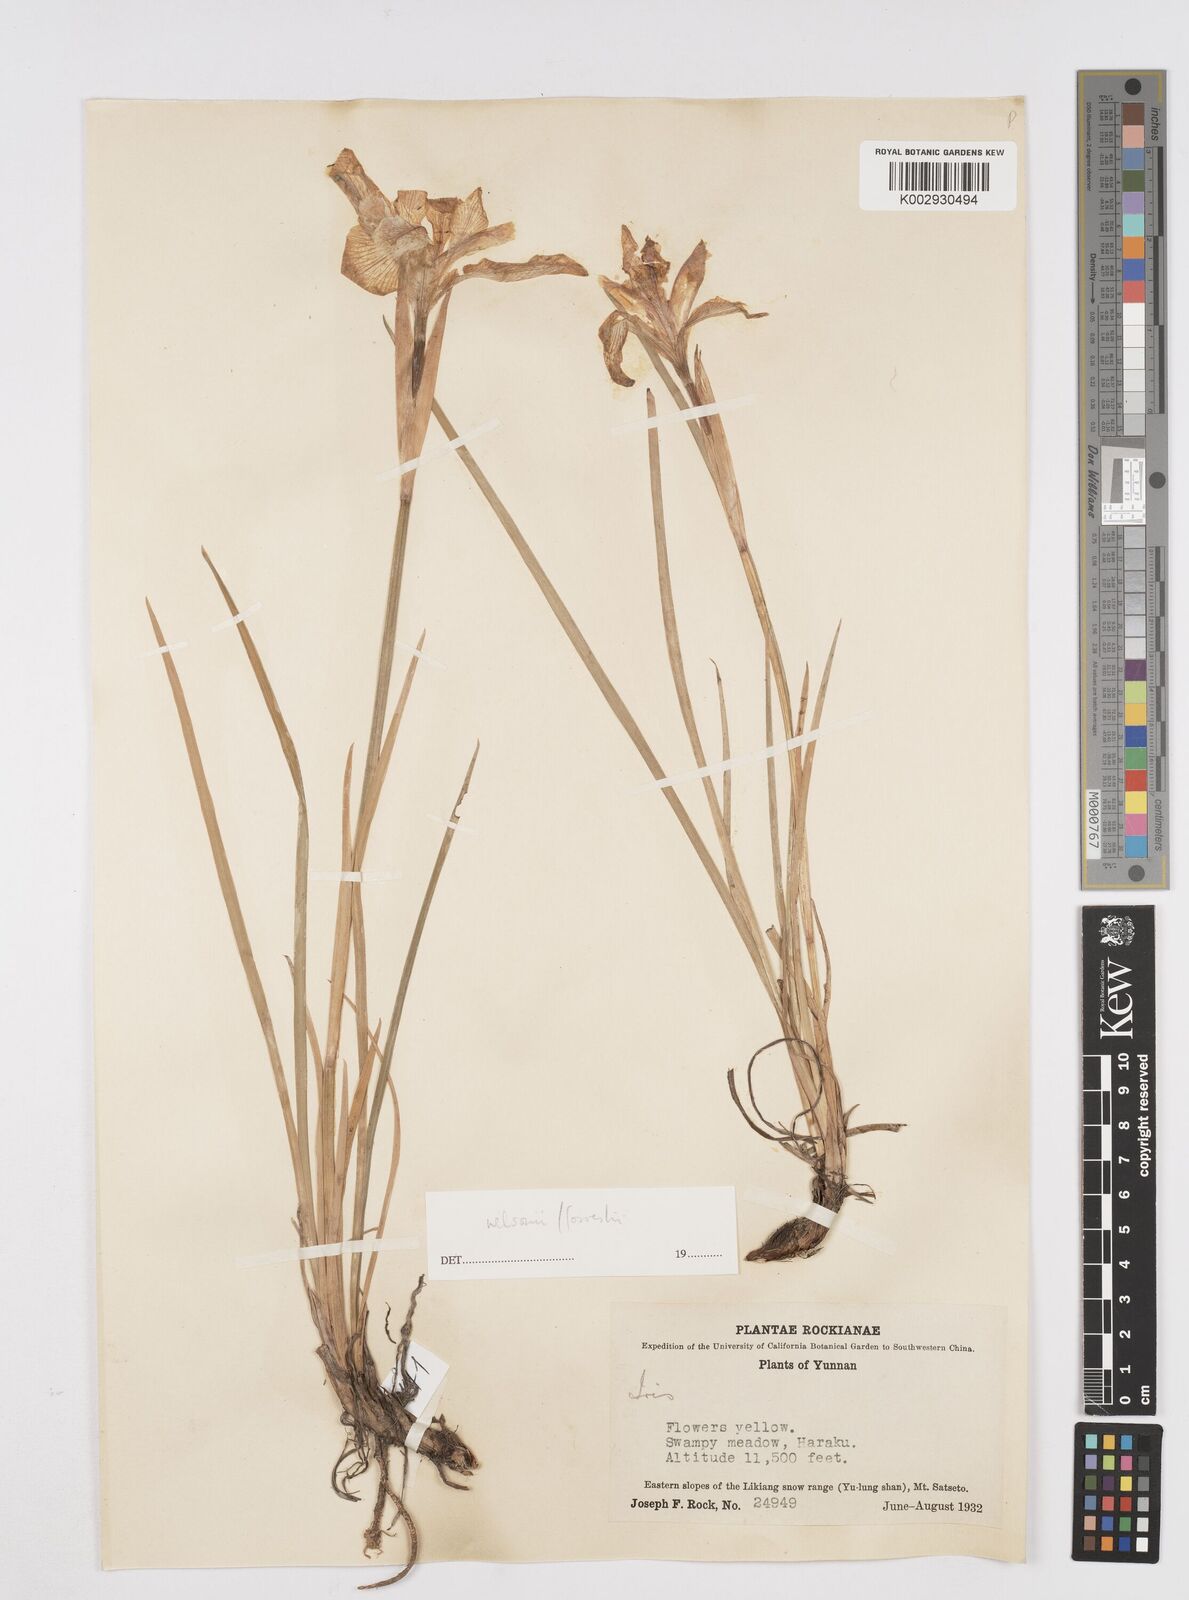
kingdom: Plantae
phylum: Tracheophyta
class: Liliopsida
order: Asparagales
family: Iridaceae
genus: Iris
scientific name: Iris wilsonii
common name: Yellow-flower iris
